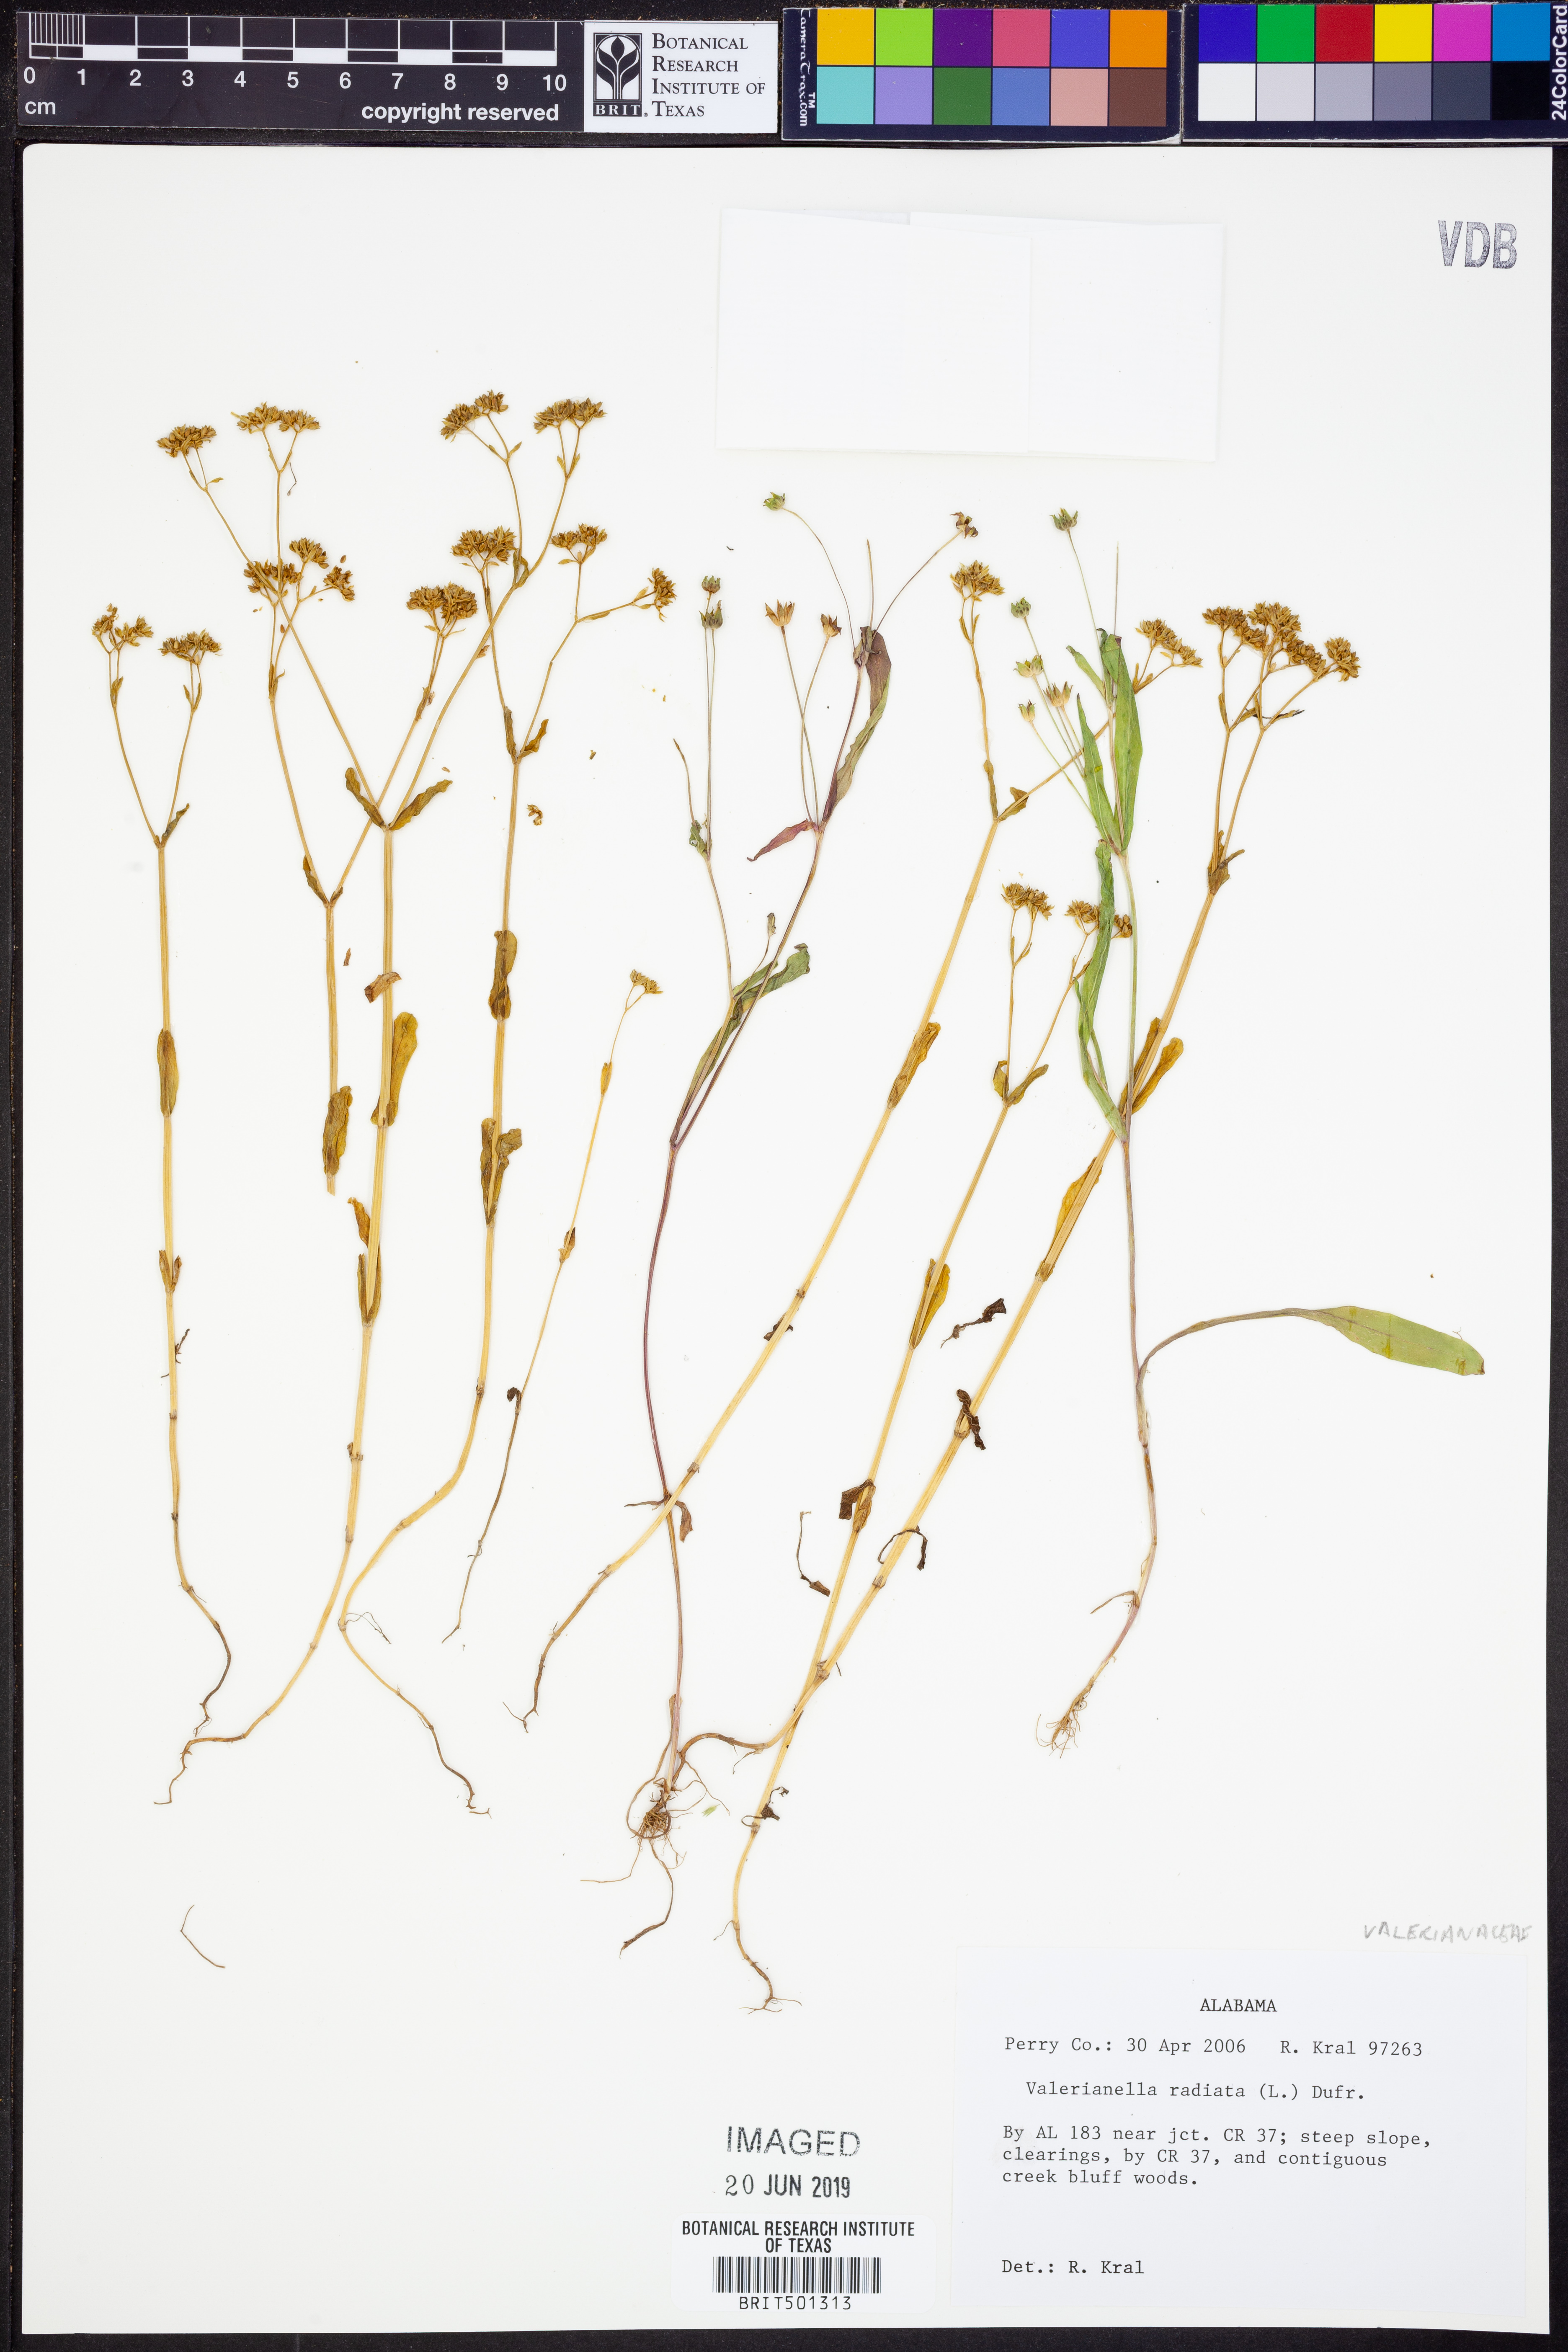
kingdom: Plantae
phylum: Tracheophyta
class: Magnoliopsida
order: Dipsacales
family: Caprifoliaceae
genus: Valerianella
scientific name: Valerianella radiata
